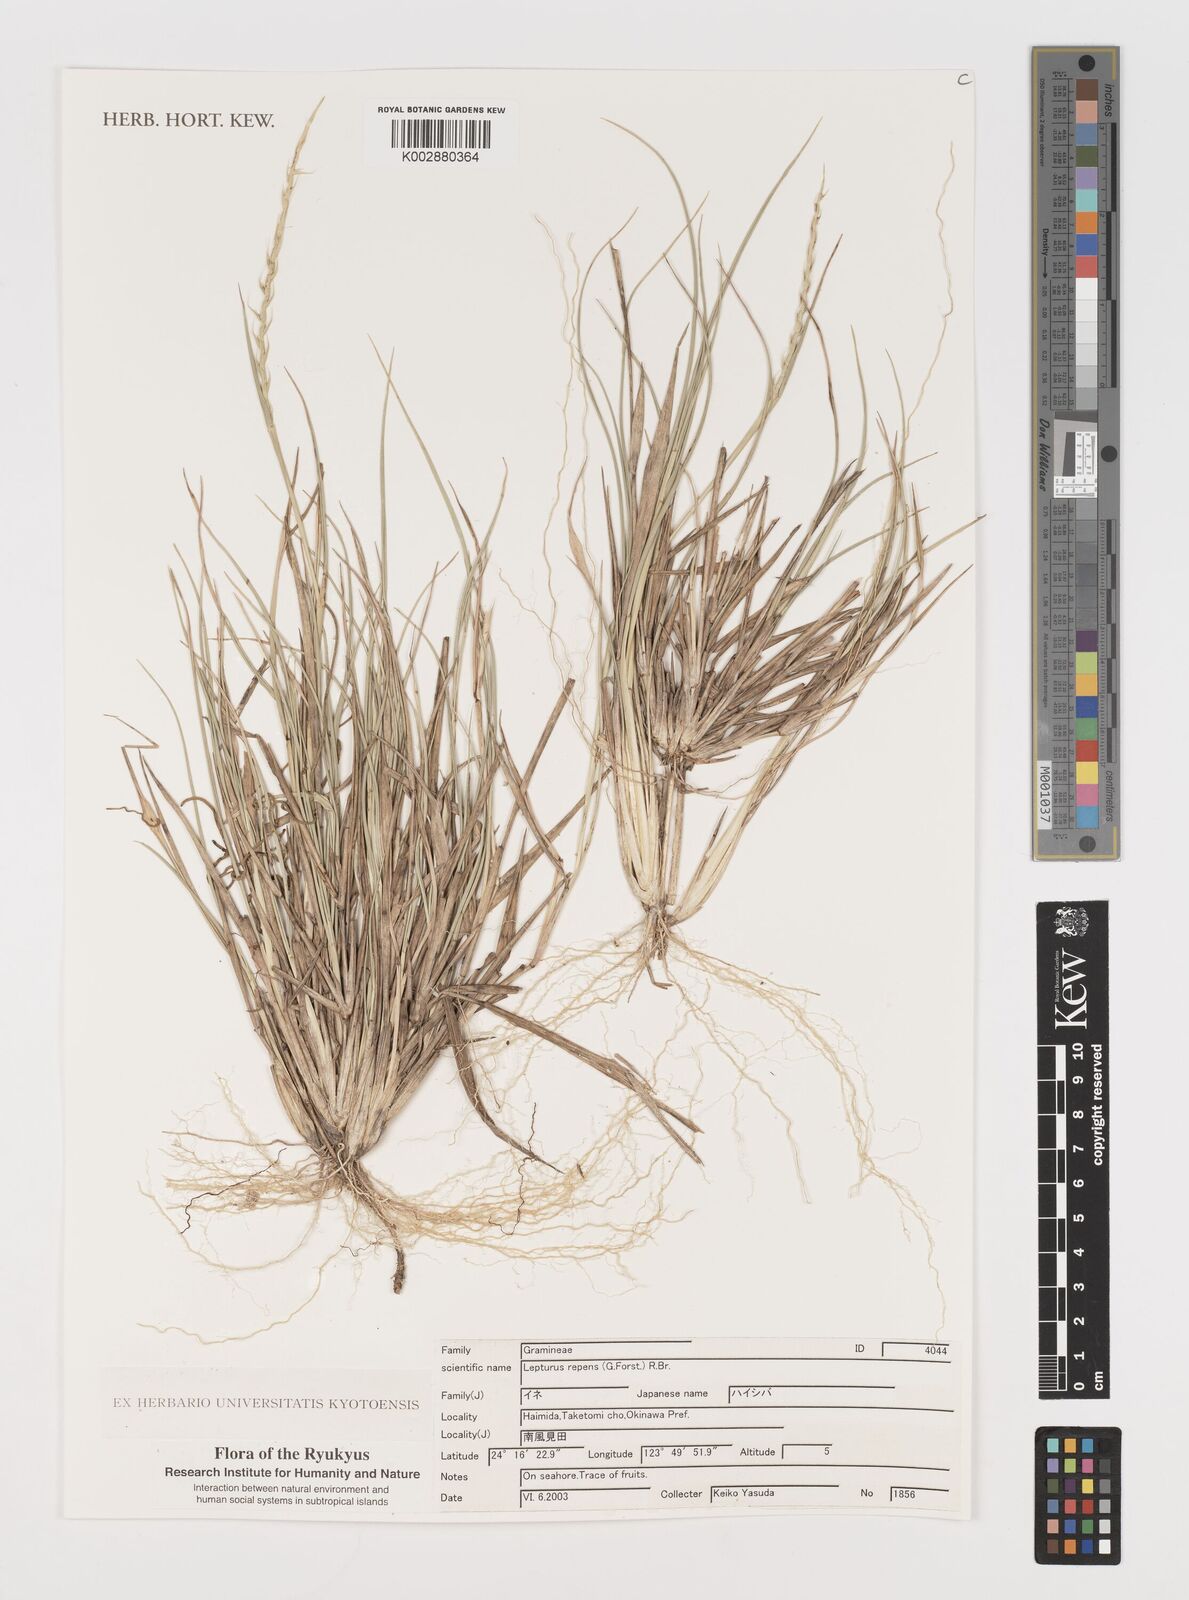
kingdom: Plantae
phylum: Tracheophyta
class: Liliopsida
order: Poales
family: Poaceae
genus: Lepturus
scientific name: Lepturus repens
